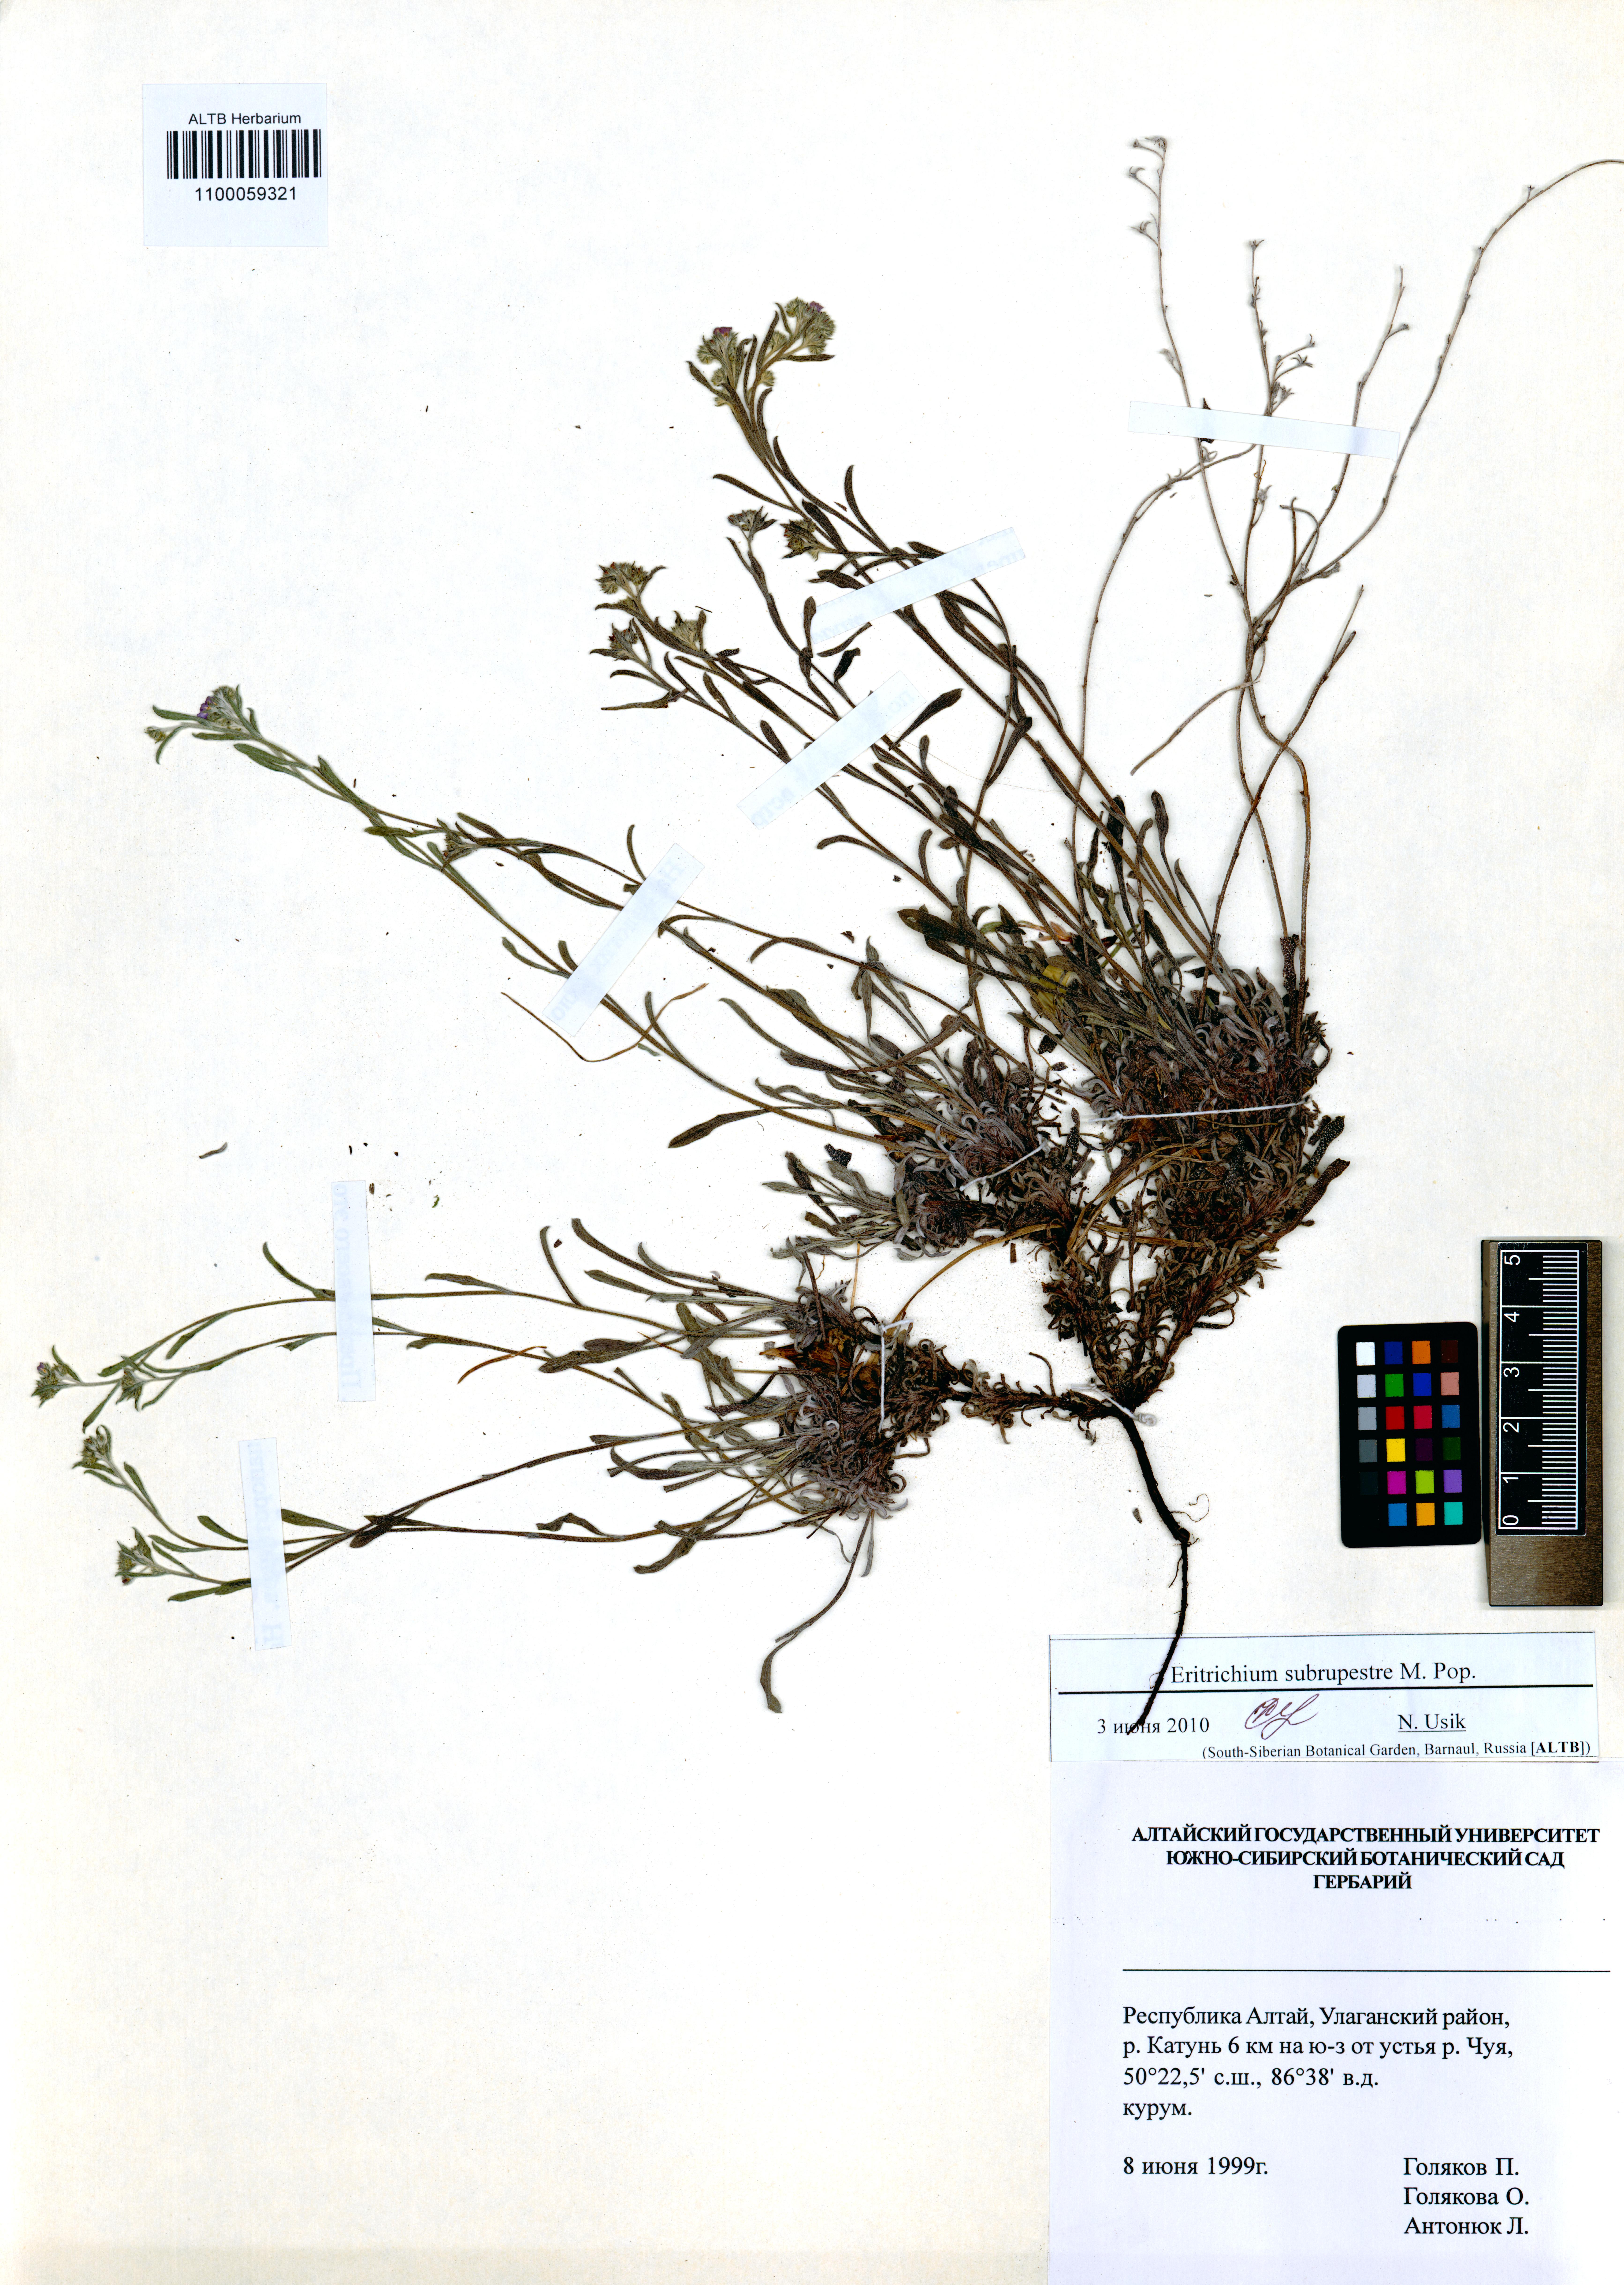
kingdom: Plantae
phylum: Tracheophyta
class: Magnoliopsida
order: Boraginales
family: Boraginaceae
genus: Eritrichium
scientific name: Eritrichium pauciflorum
